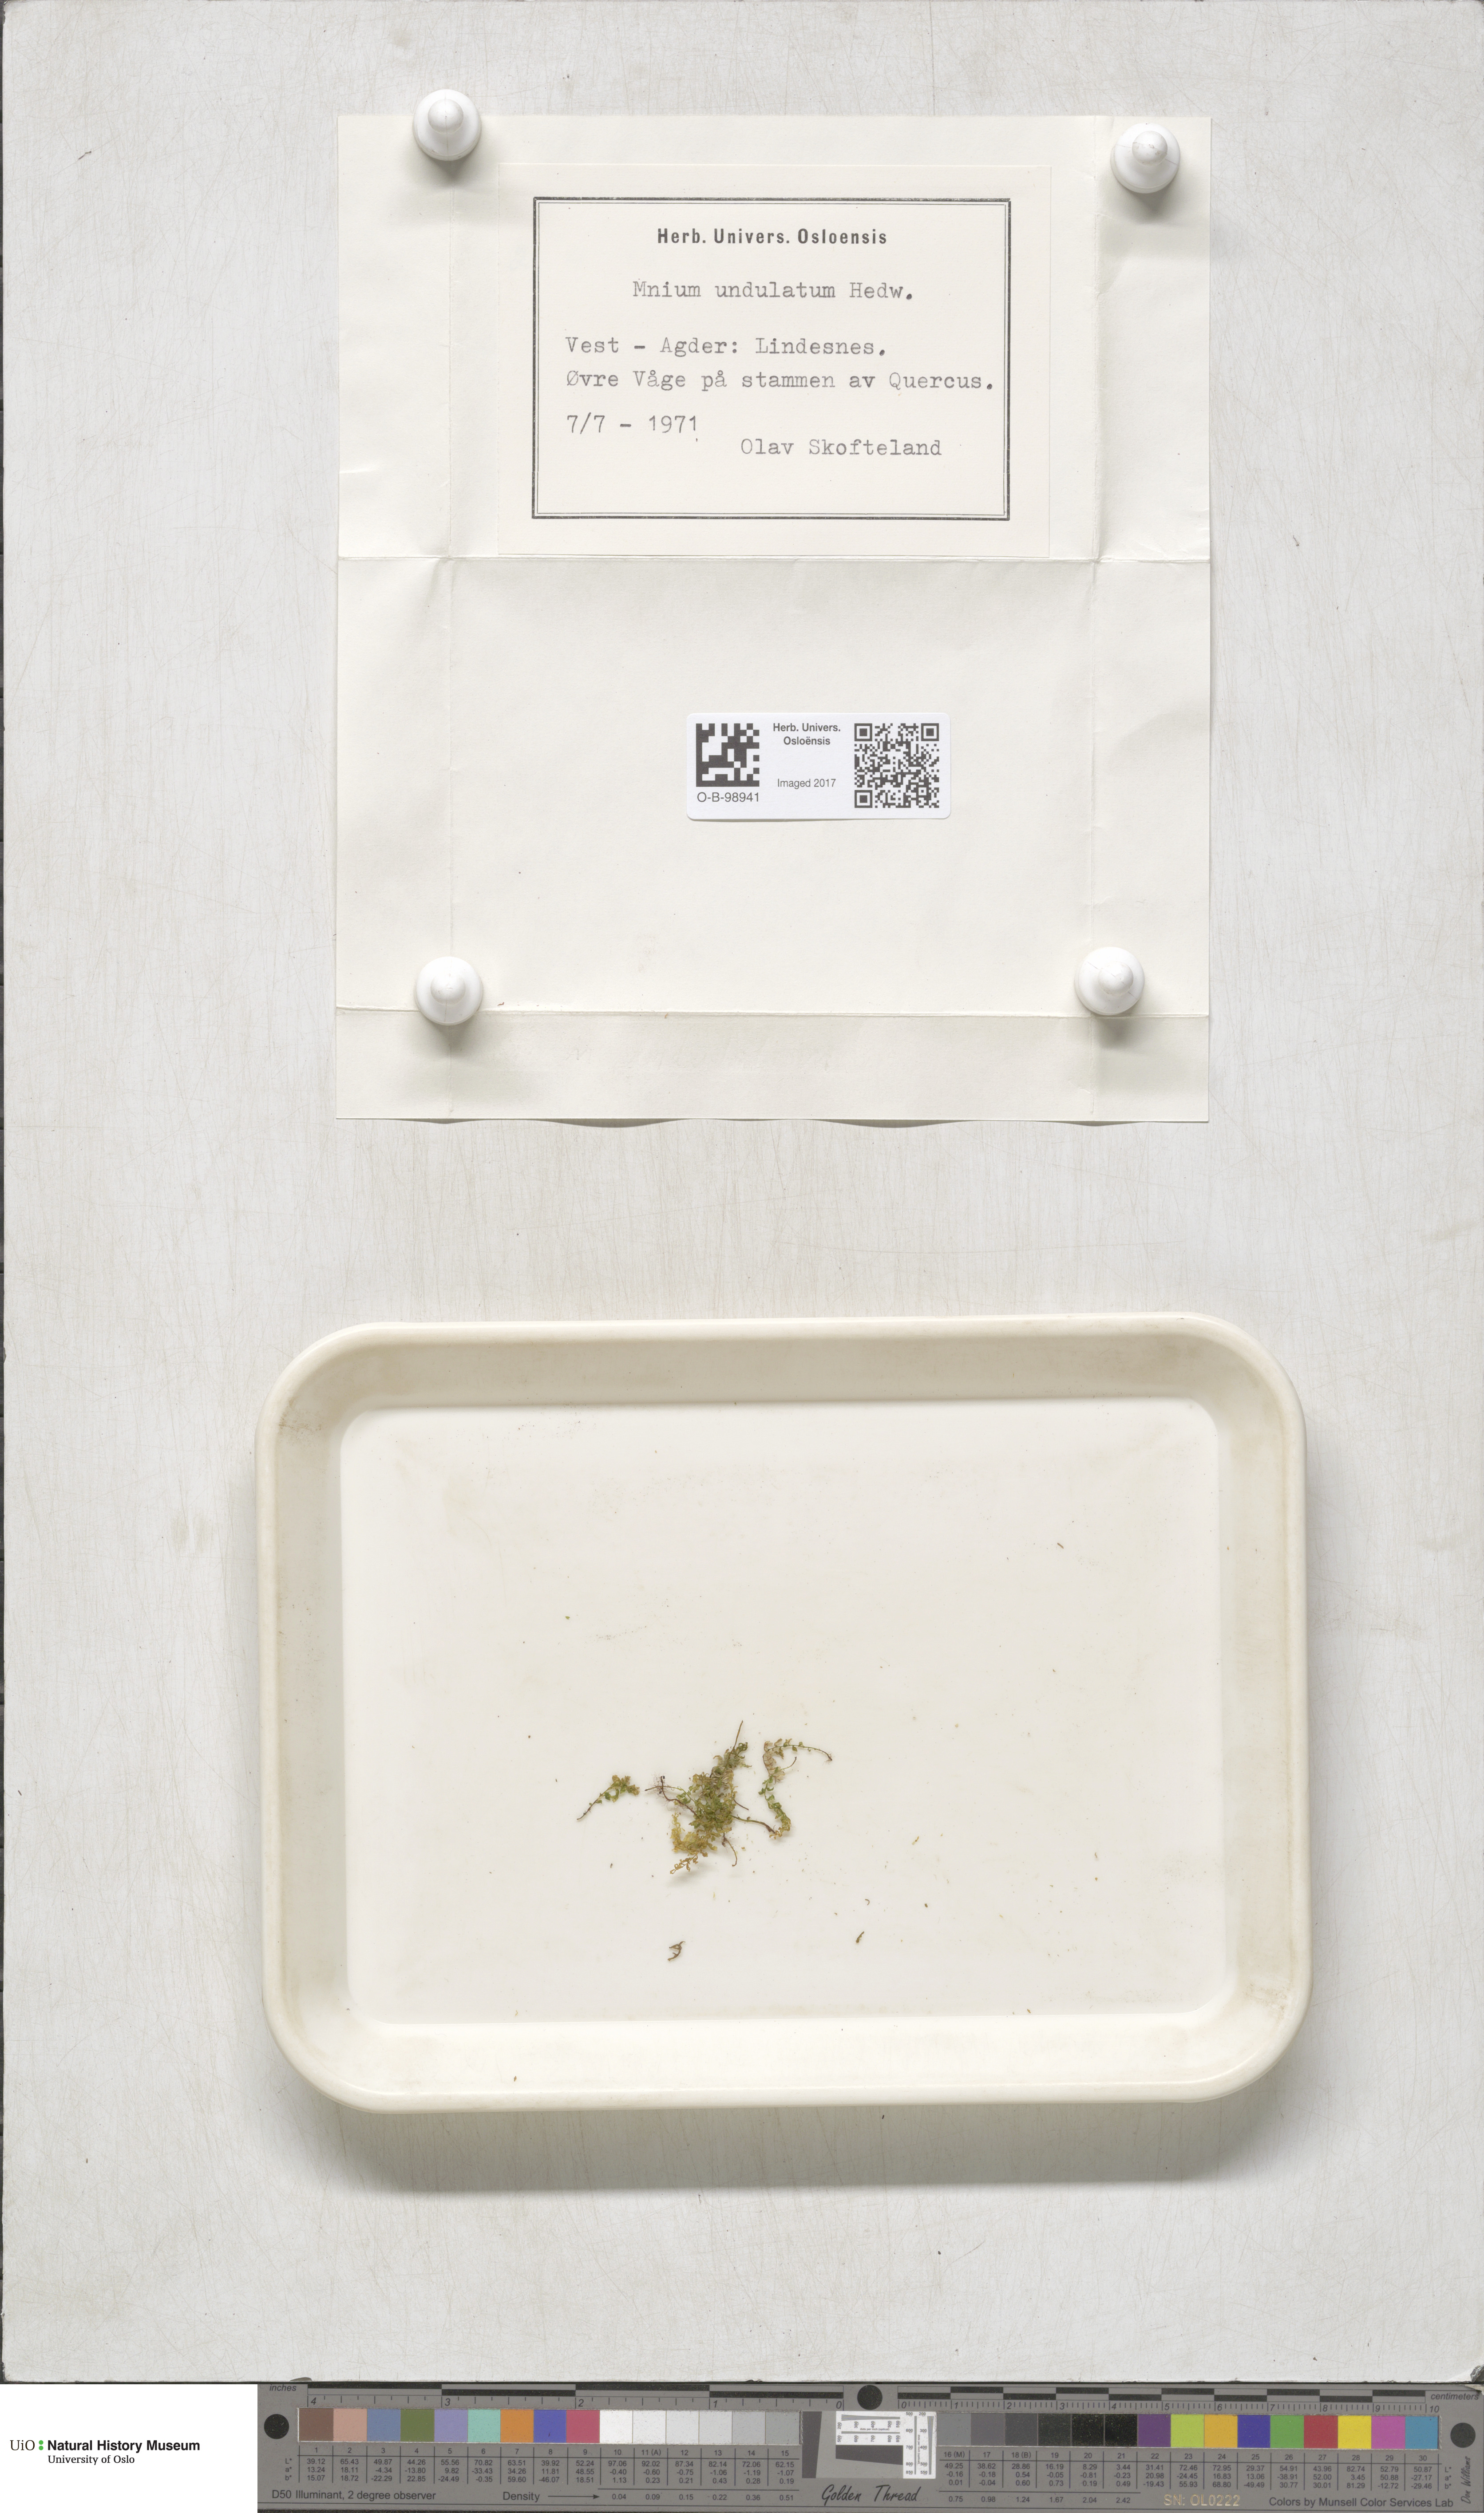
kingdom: Plantae
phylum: Bryophyta
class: Bryopsida
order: Bryales
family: Mniaceae
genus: Plagiomnium
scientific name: Plagiomnium undulatum
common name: Hart's-tongue thyme-moss
